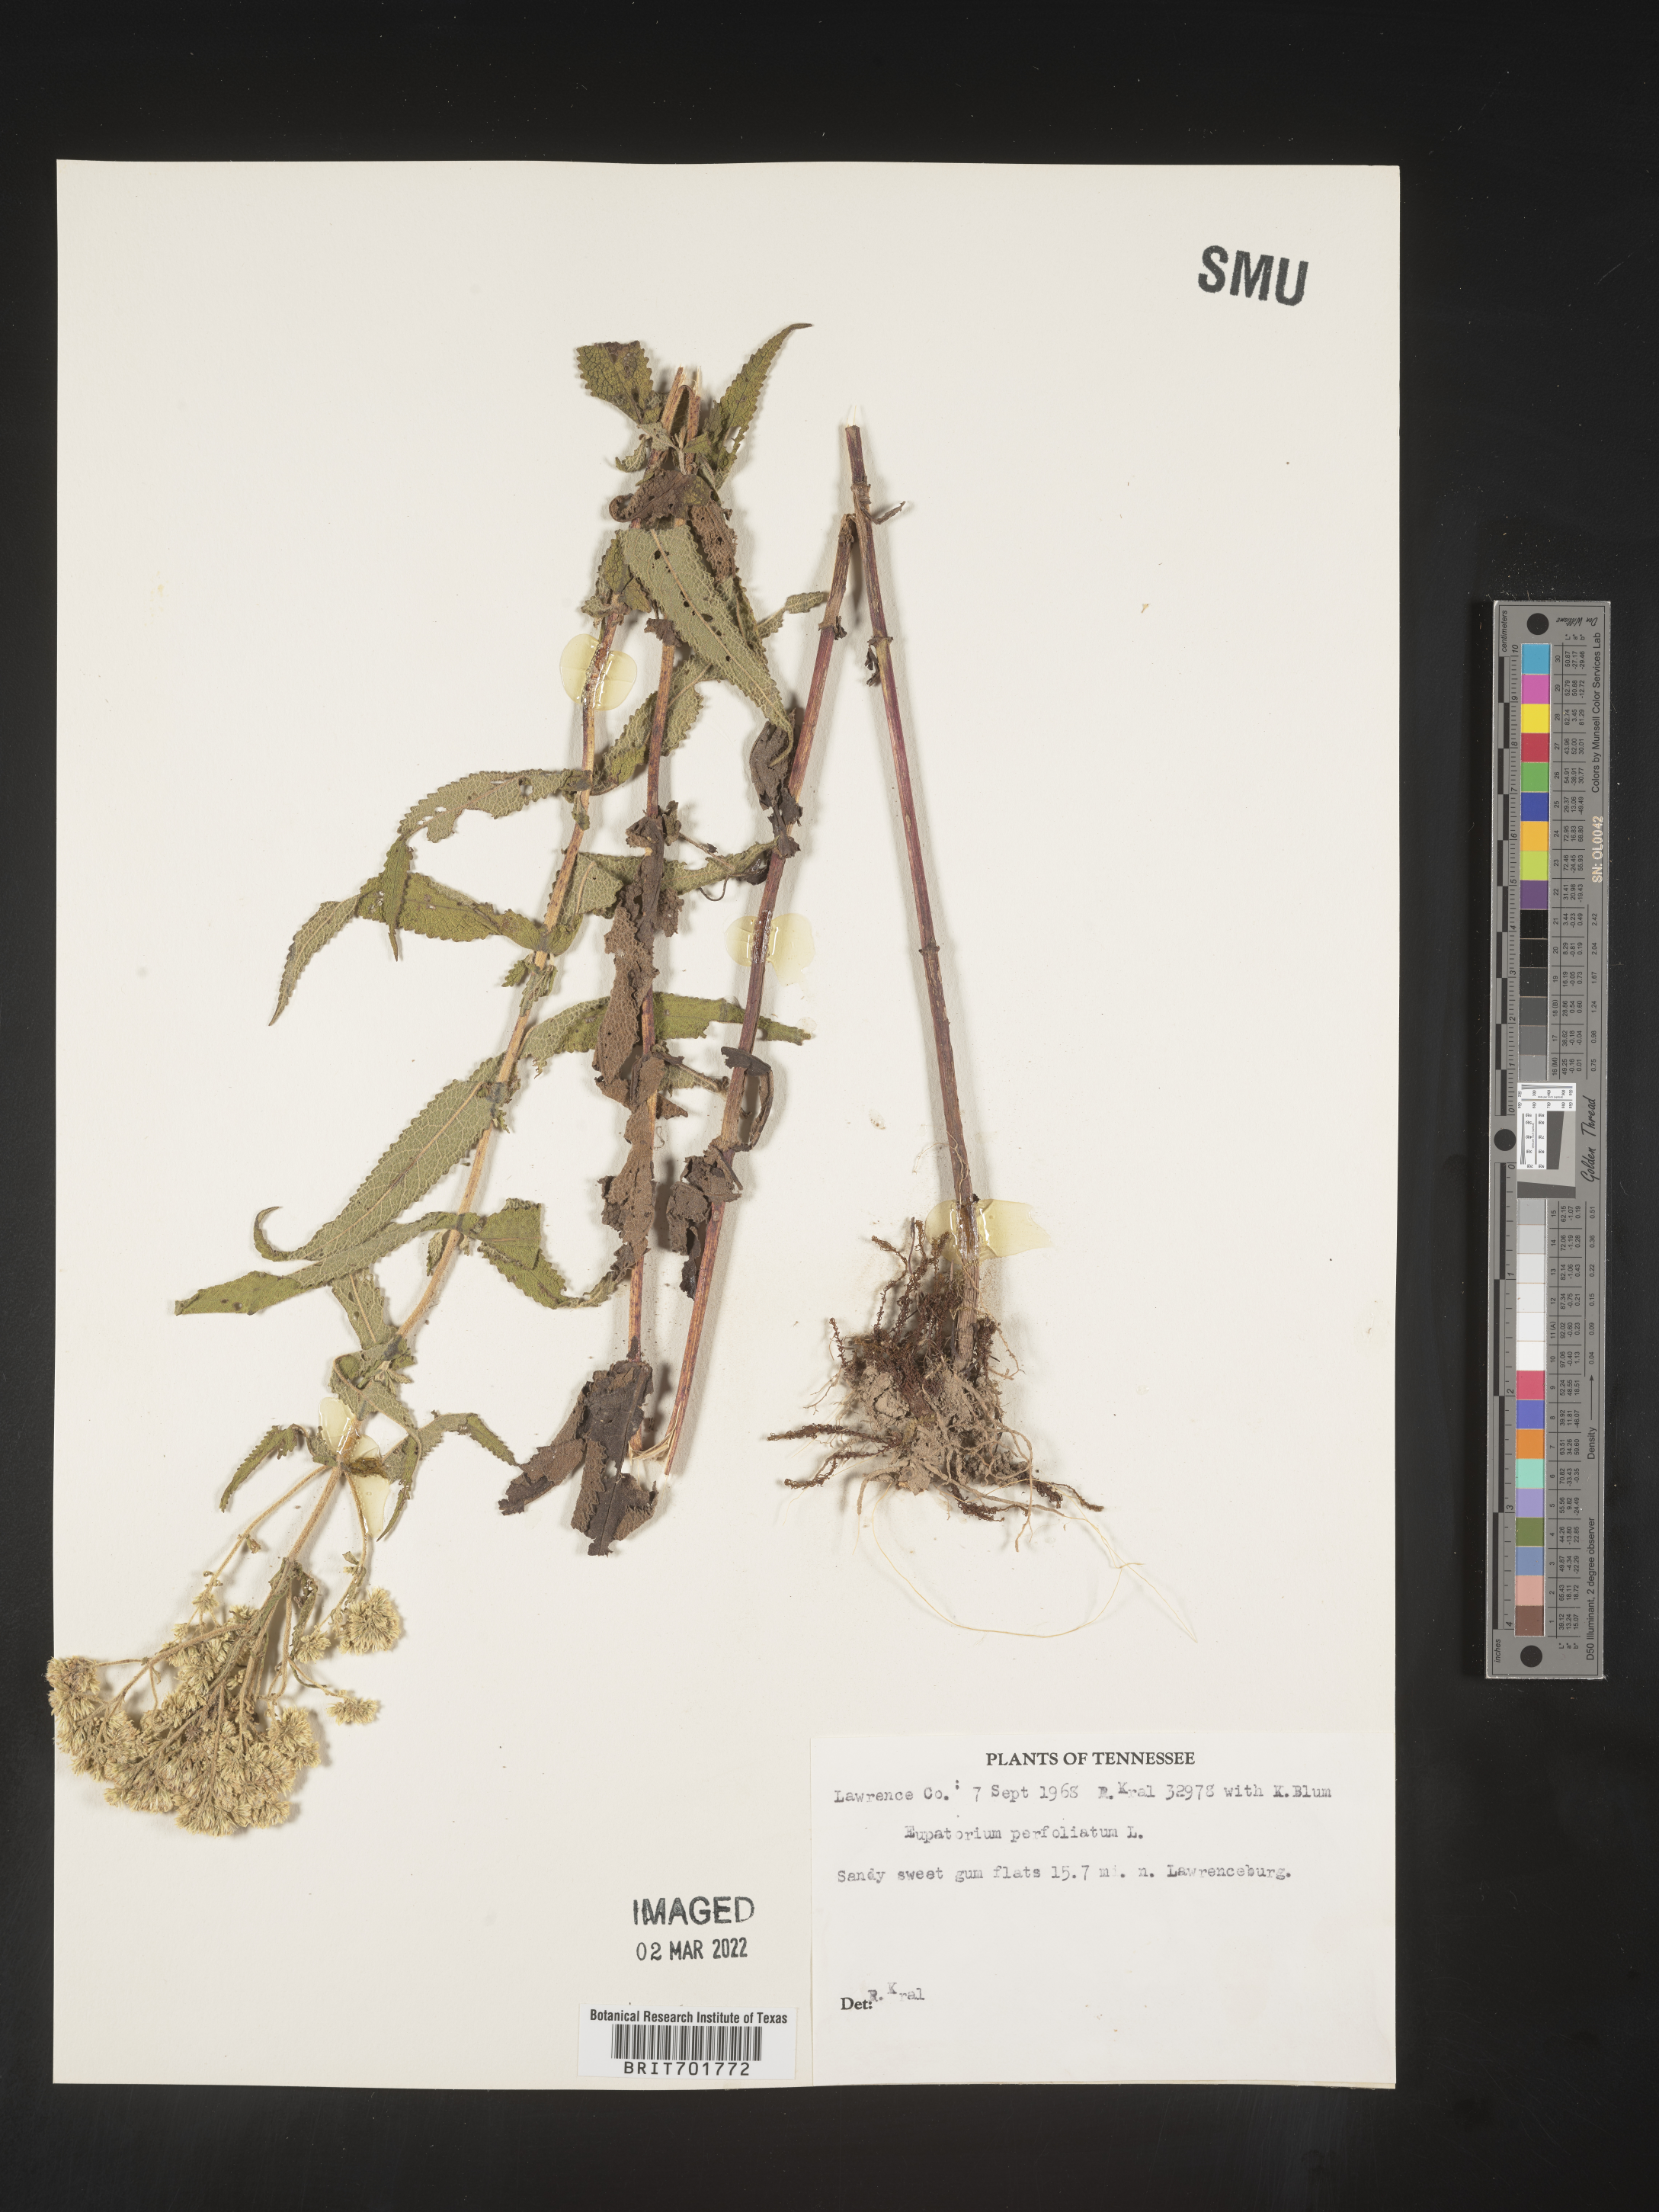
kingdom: Plantae
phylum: Tracheophyta
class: Magnoliopsida
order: Asterales
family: Asteraceae
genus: Eupatorium
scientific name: Eupatorium perfoliatum
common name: Boneset
